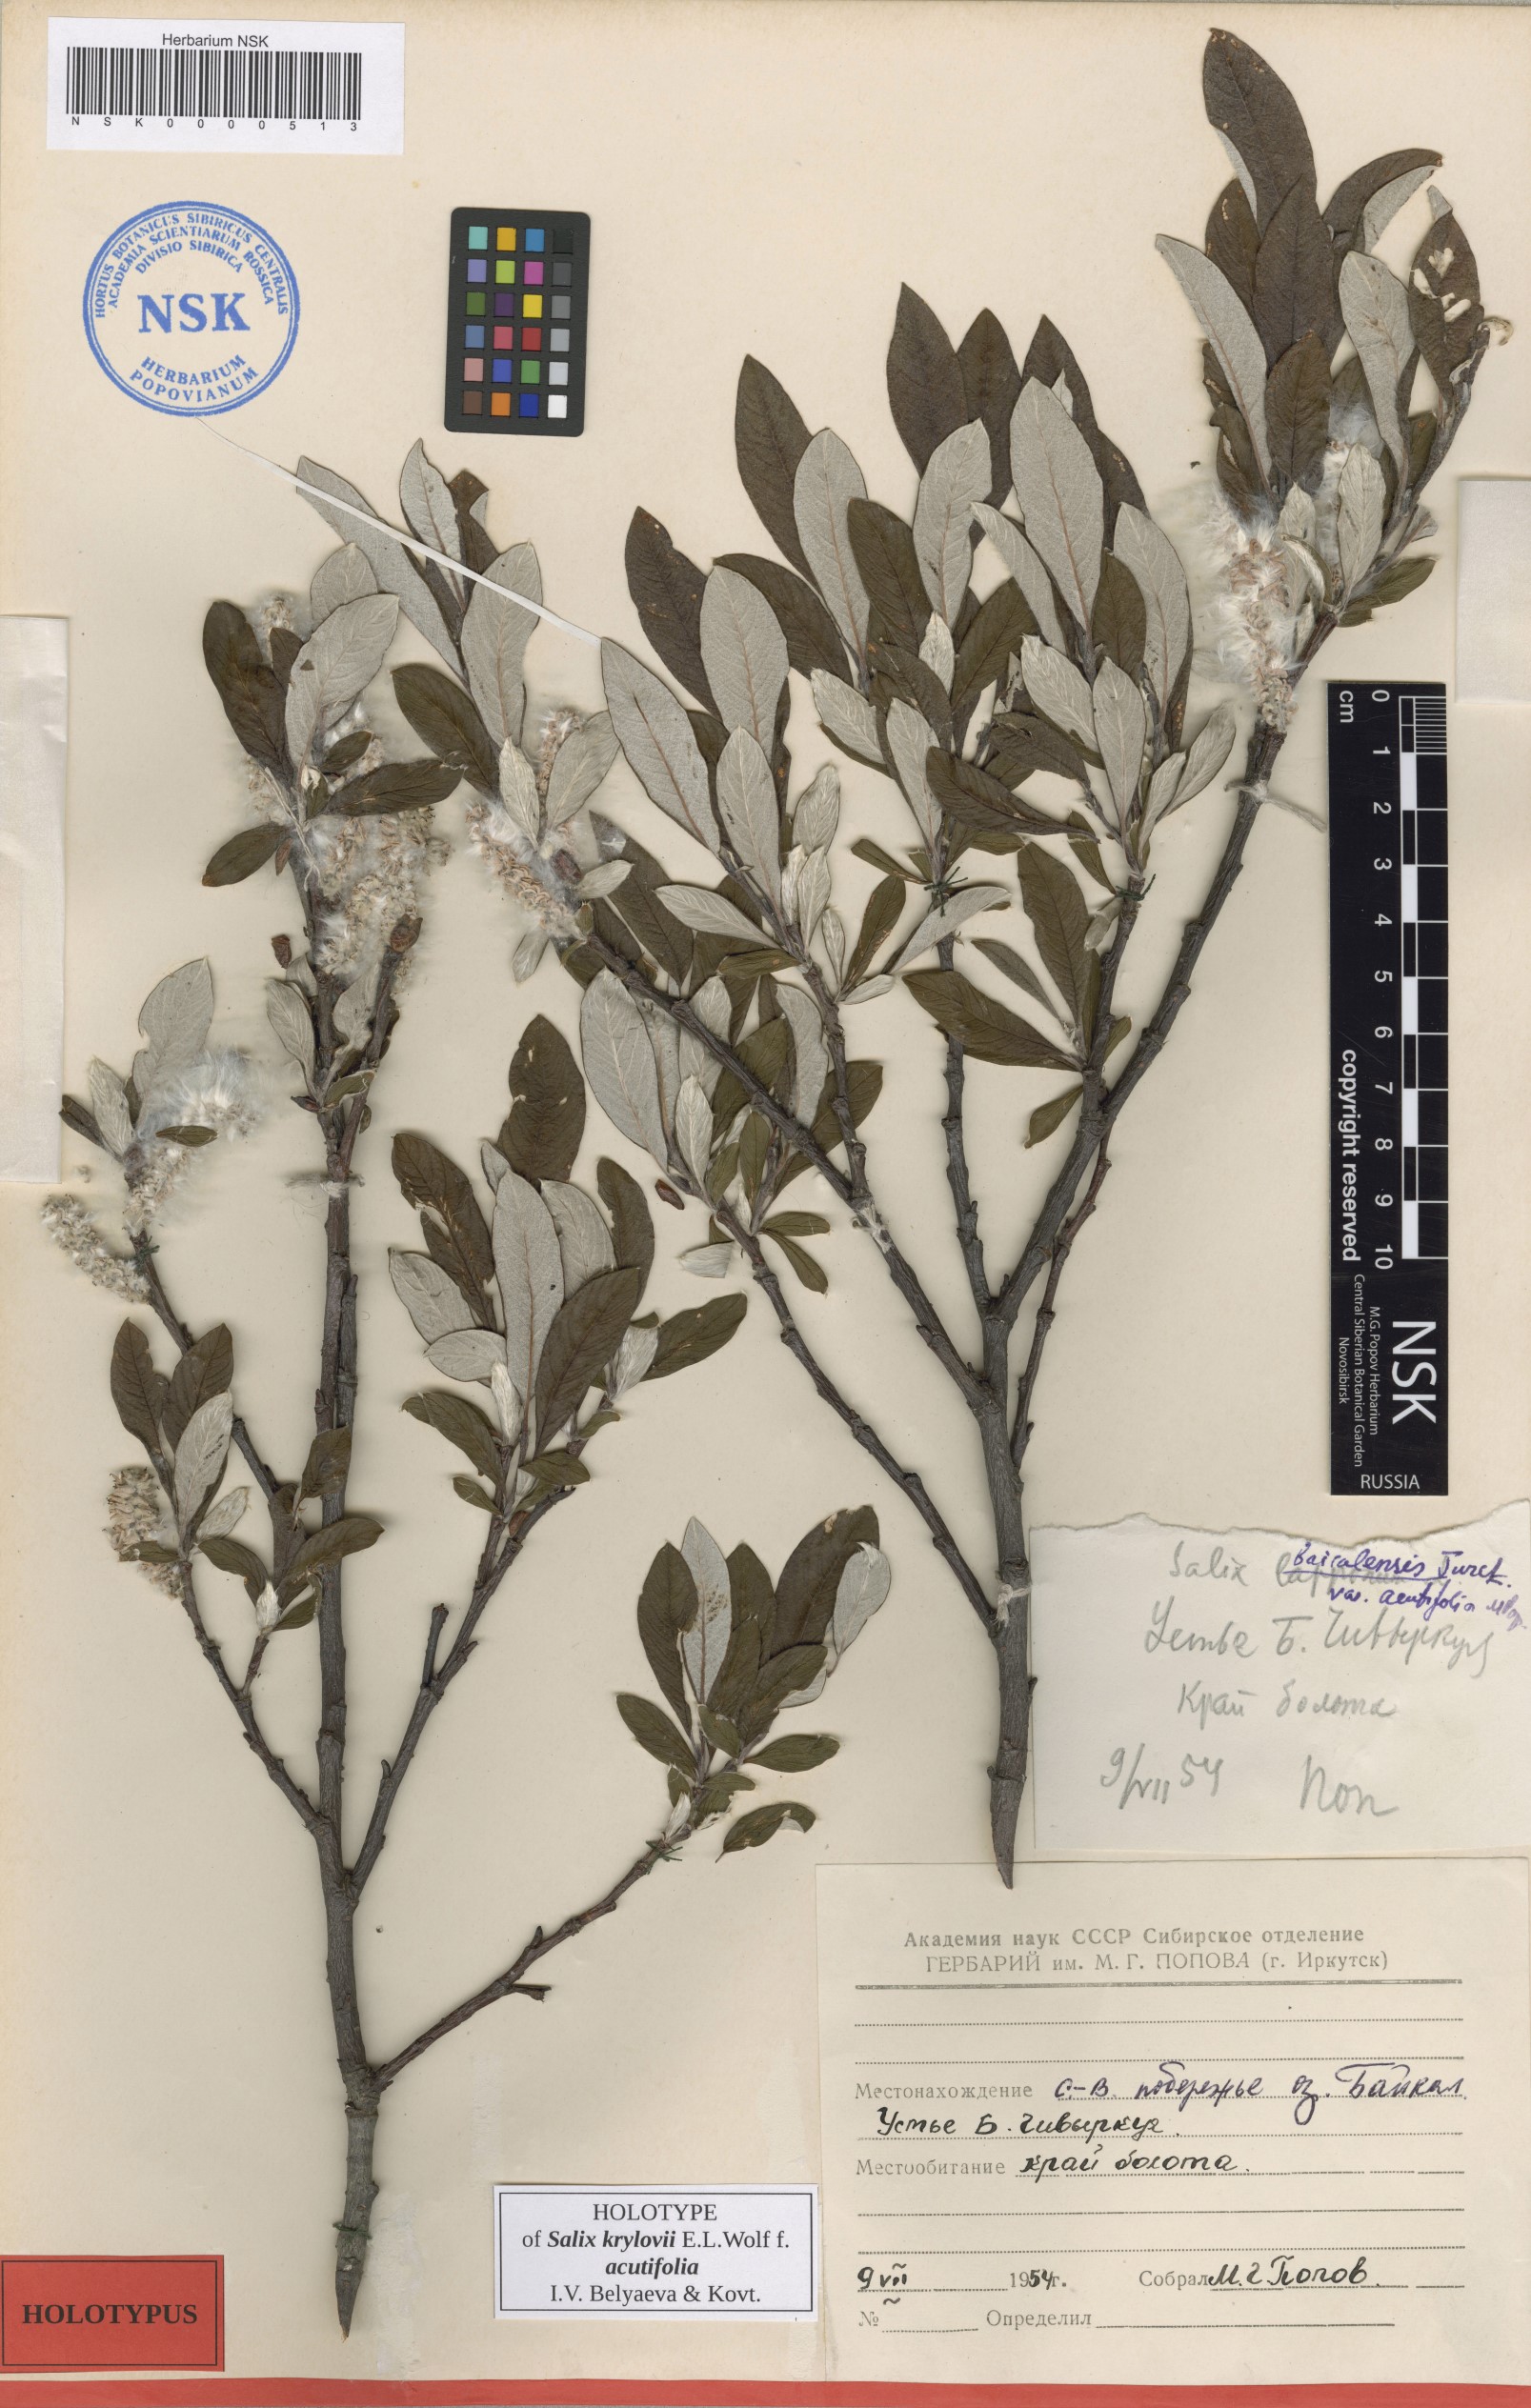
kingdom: Plantae
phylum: Tracheophyta
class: Magnoliopsida
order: Malpighiales
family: Salicaceae
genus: Salix
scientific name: Salix krylovii
